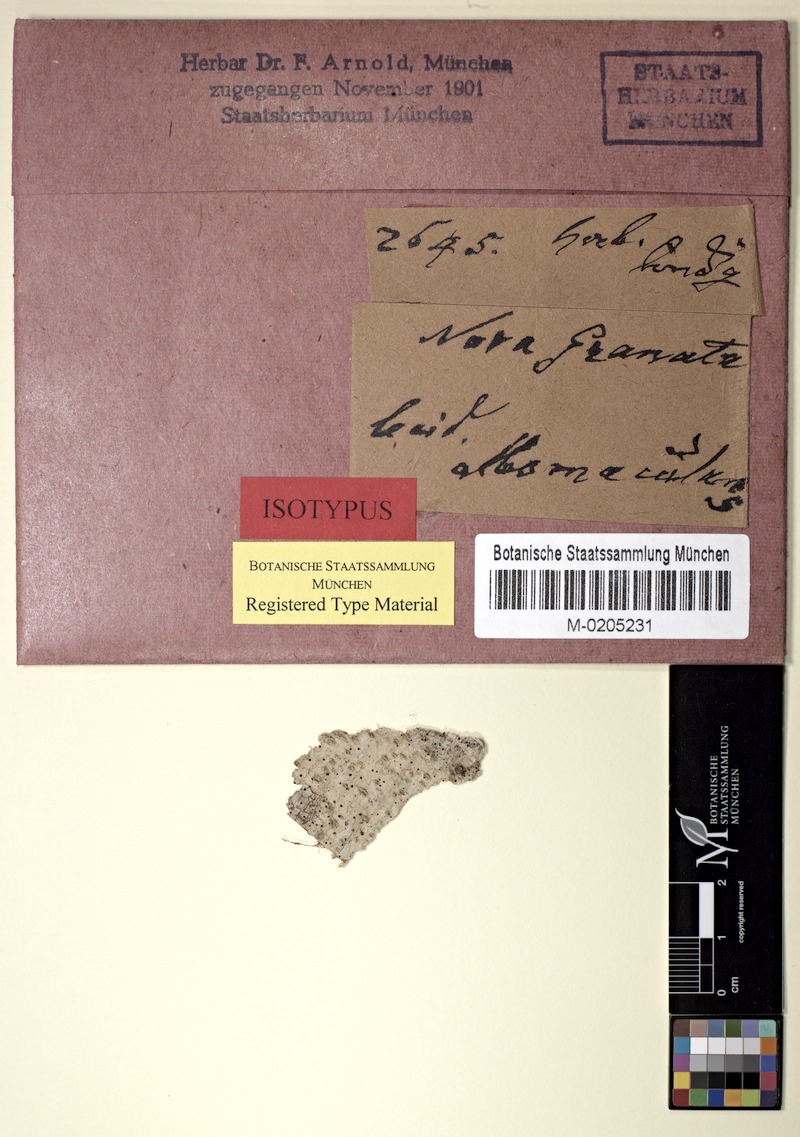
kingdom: Fungi
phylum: Ascomycota
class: Lecanoromycetes
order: Lecanorales
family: Ramalinaceae
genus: Bacidia
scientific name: Bacidia albomaculans
